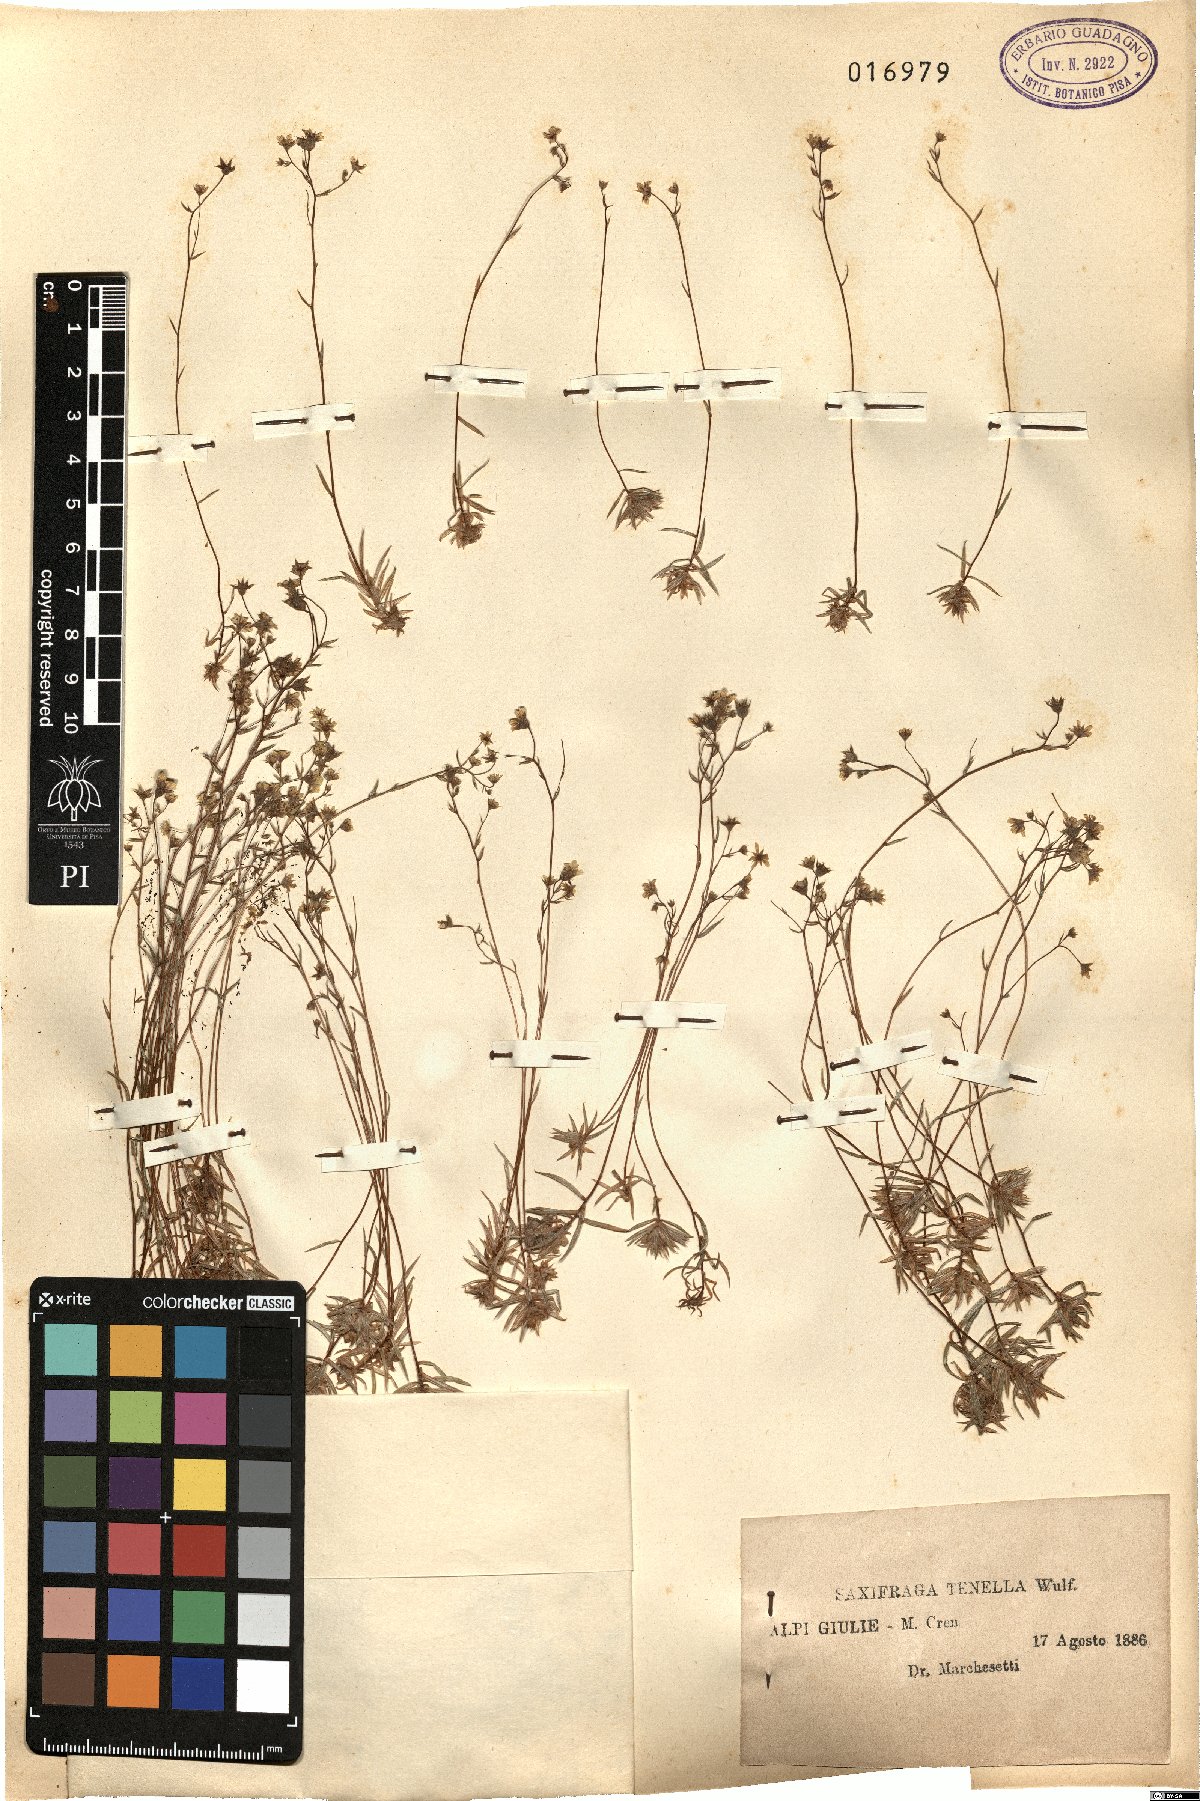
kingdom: Plantae
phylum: Tracheophyta
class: Magnoliopsida
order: Saxifragales
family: Saxifragaceae
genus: Saxifraga
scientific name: Saxifraga tenella
